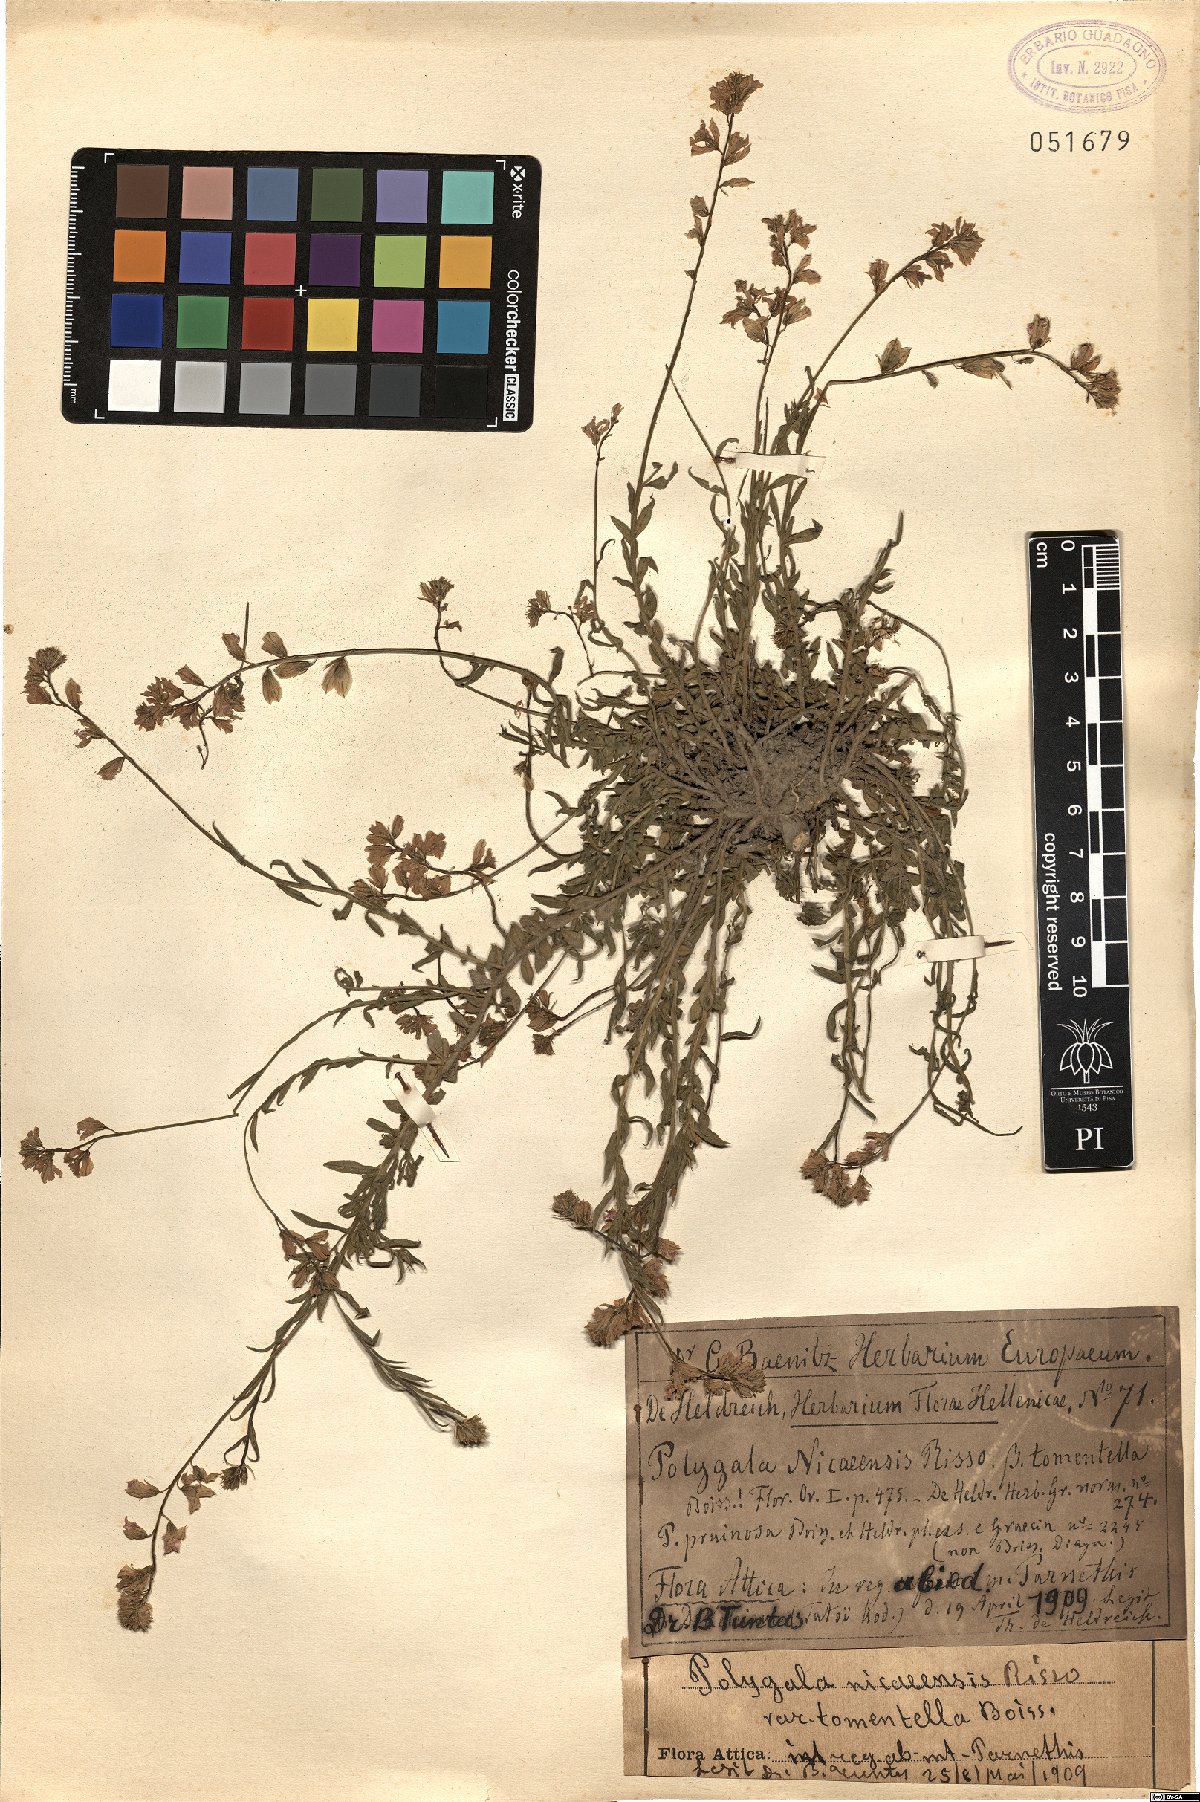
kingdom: Plantae
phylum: Tracheophyta
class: Magnoliopsida
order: Fabales
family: Polygalaceae
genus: Polygala
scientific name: Polygala nicaeensis
